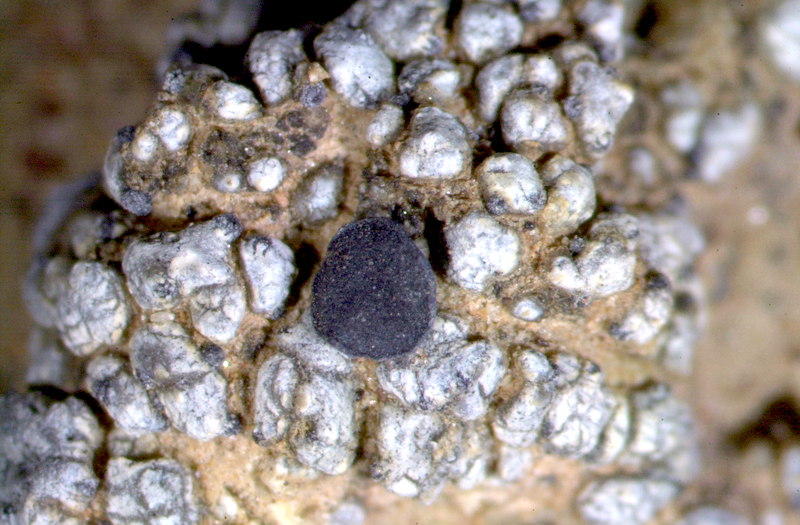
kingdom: Fungi
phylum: Ascomycota
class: Lecanoromycetes
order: Lecanorales
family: Ramalinaceae
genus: Bibbya
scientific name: Bibbya lutosa
